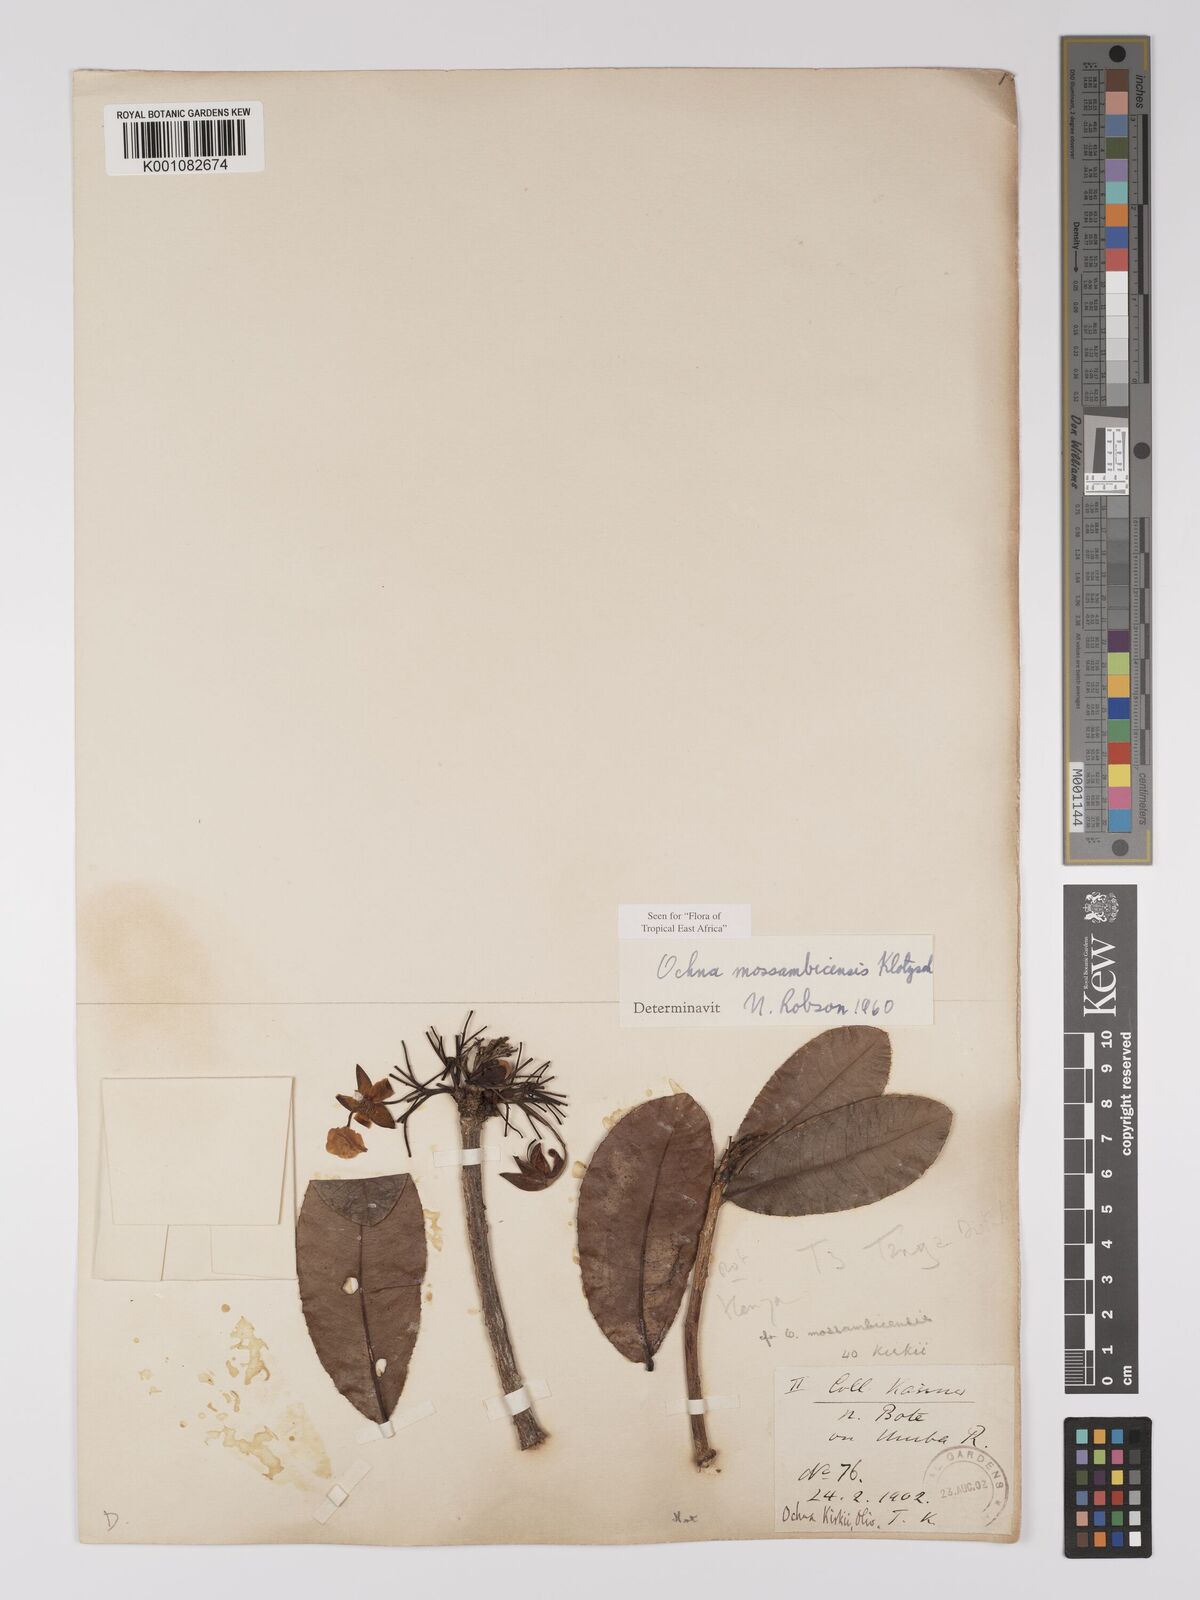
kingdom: Plantae
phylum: Tracheophyta
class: Magnoliopsida
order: Malpighiales
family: Ochnaceae
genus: Ochna
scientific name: Ochna atropurpurea
